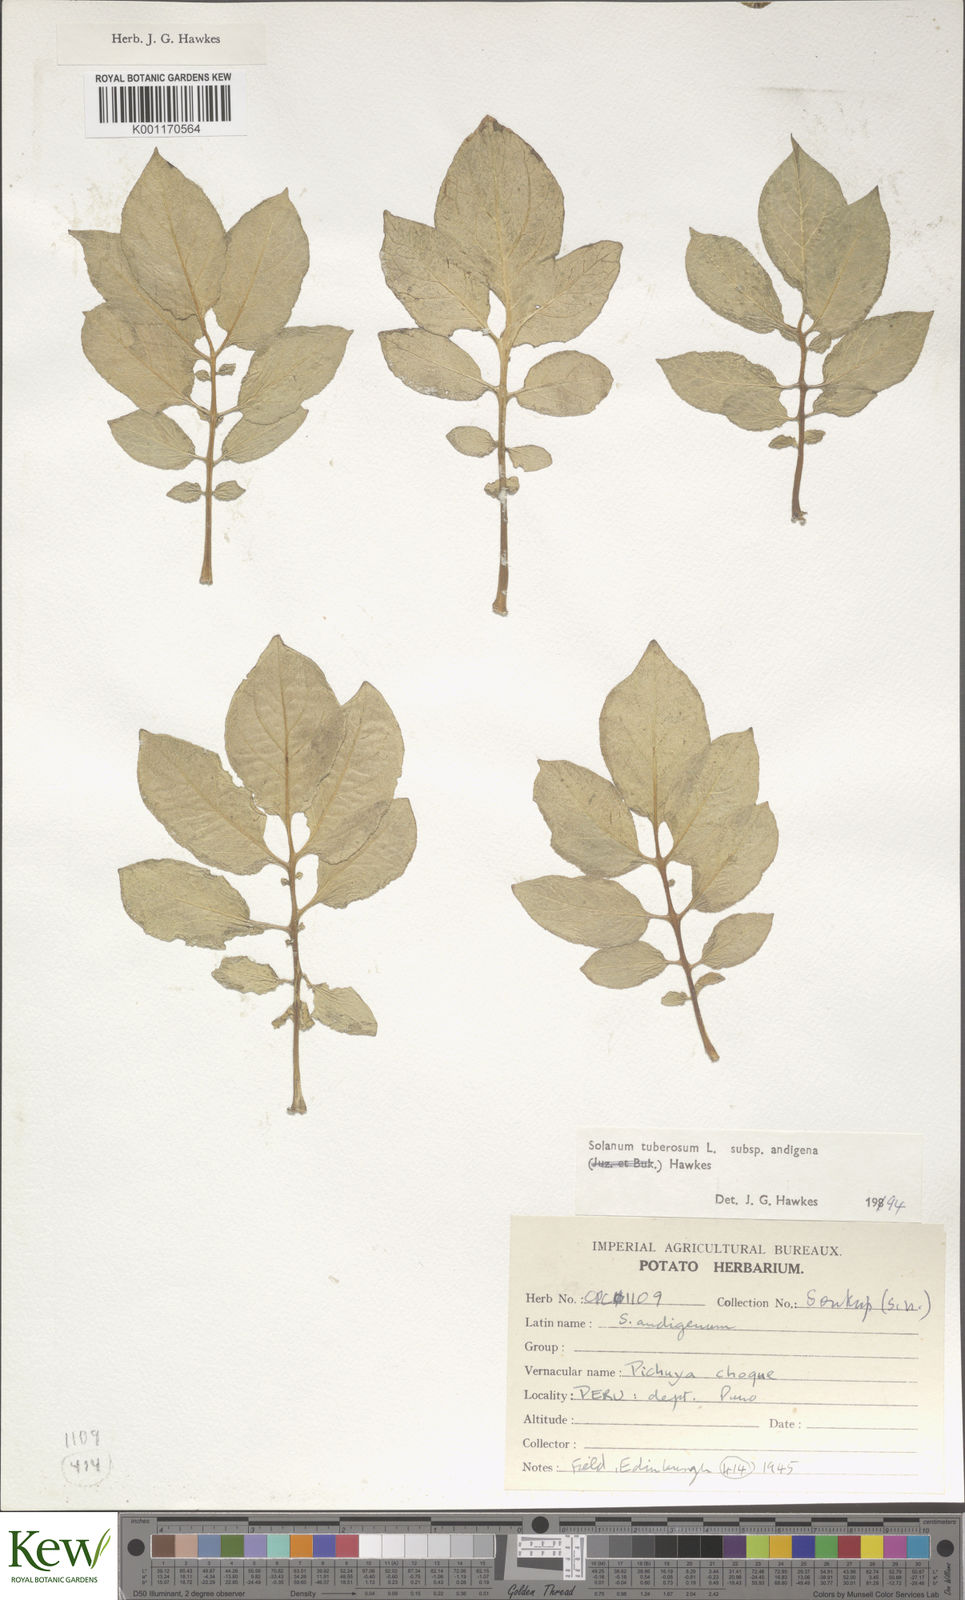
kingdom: Plantae
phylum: Tracheophyta
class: Magnoliopsida
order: Solanales
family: Solanaceae
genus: Solanum
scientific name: Solanum tuberosum
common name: Potato
